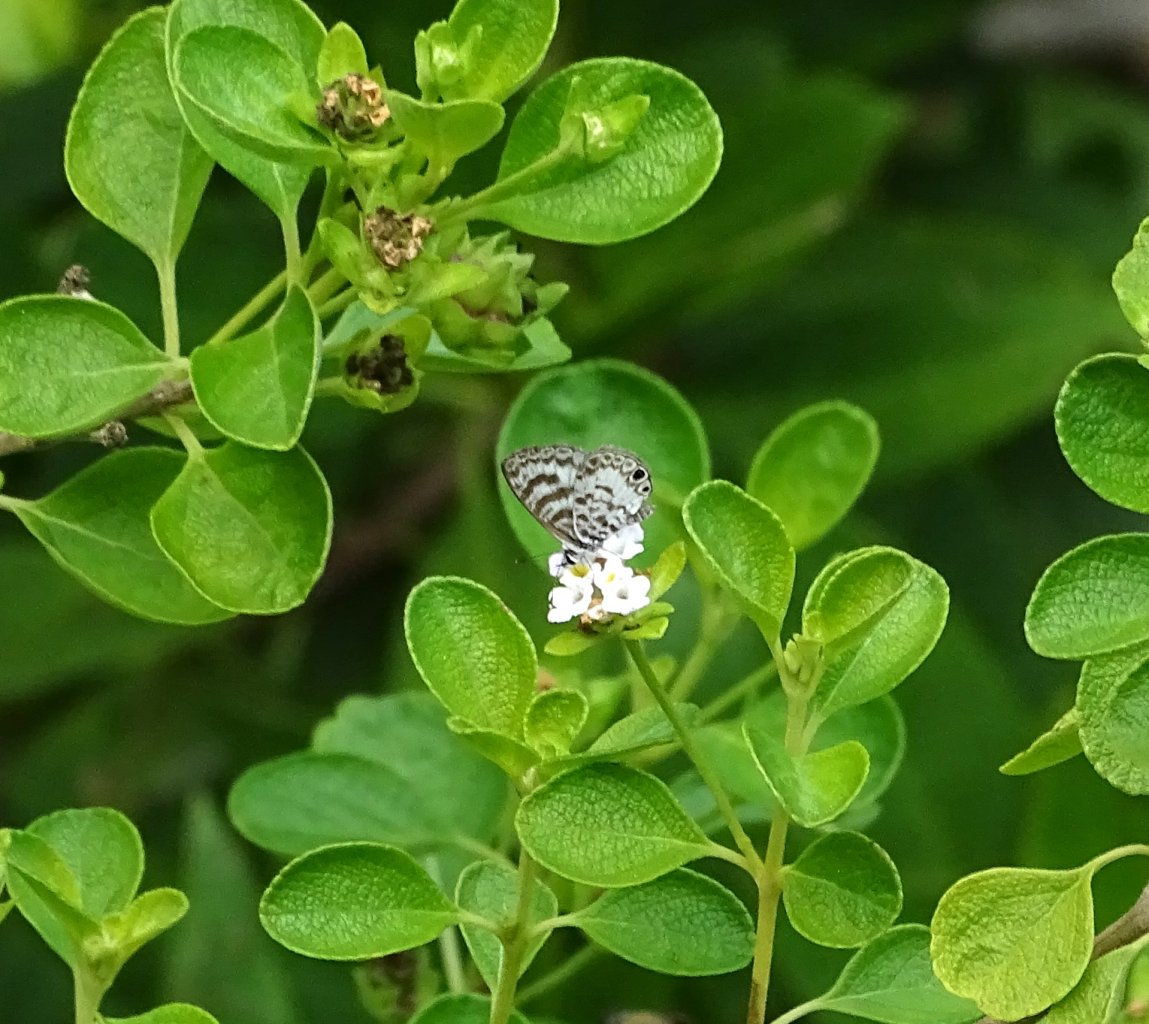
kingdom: Animalia
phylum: Arthropoda
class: Insecta
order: Lepidoptera
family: Lycaenidae
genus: Leptotes
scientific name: Leptotes cassius
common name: Cassius Blue
